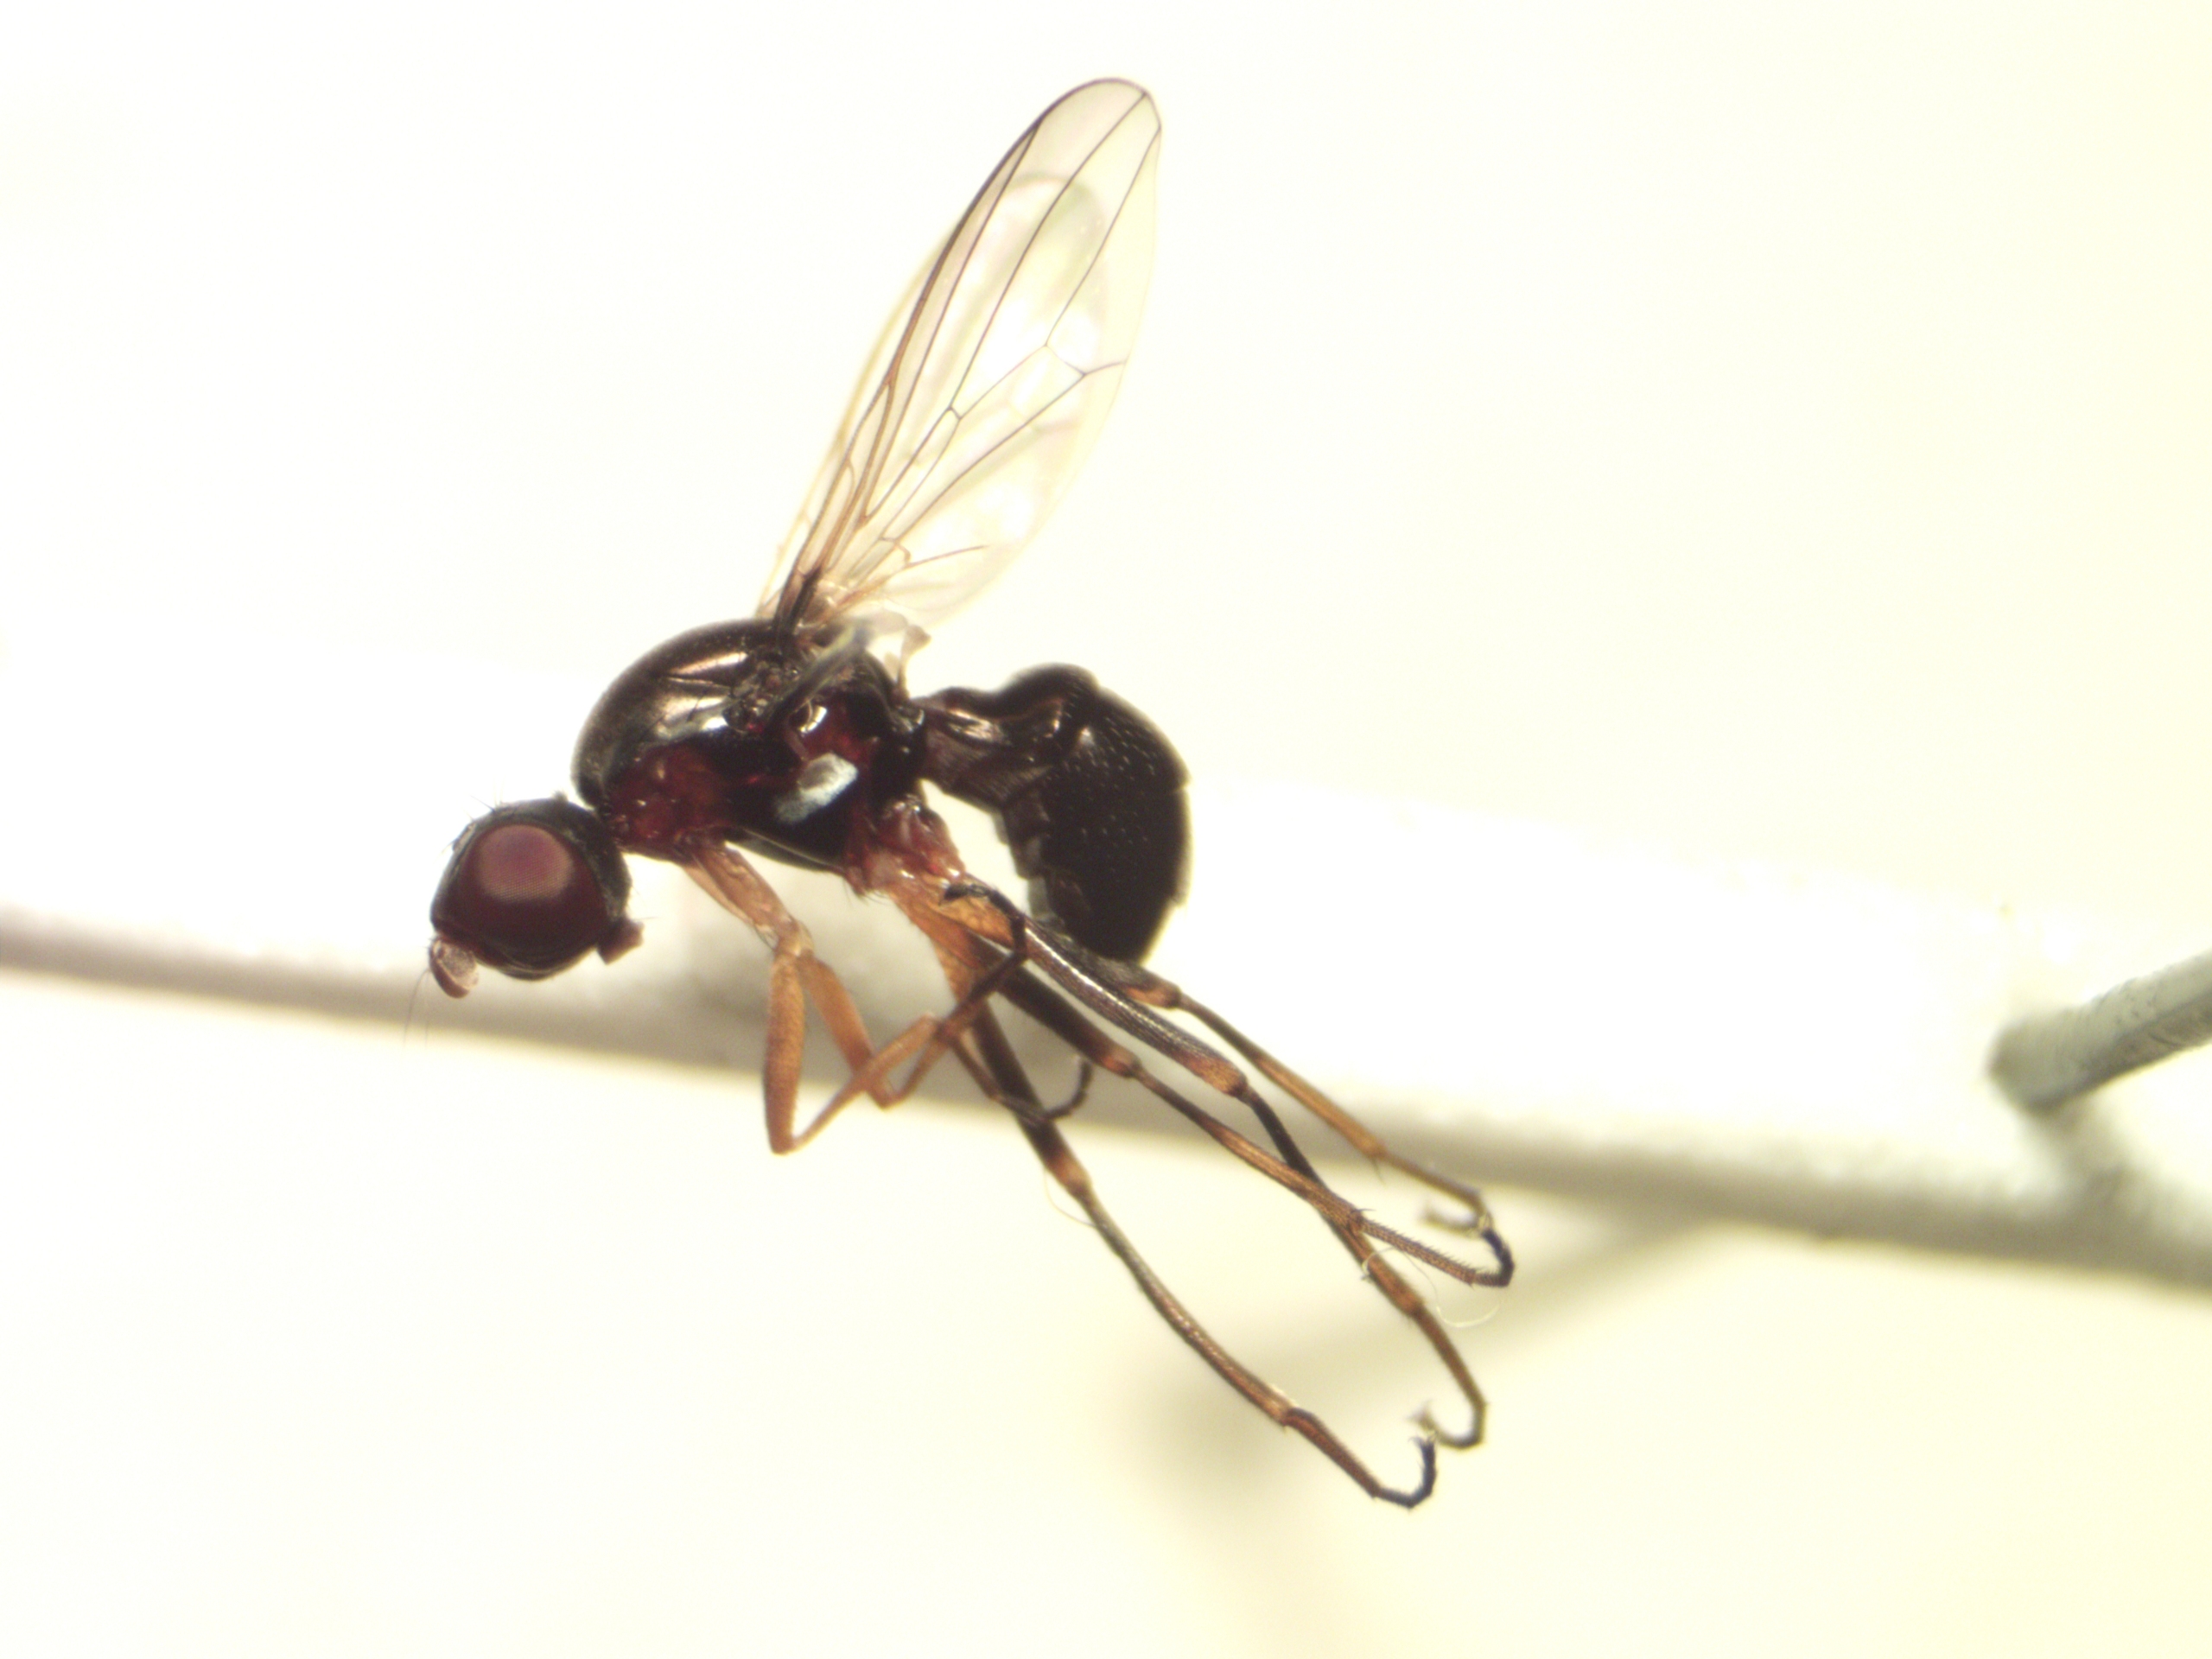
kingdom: Animalia
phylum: Arthropoda
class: Insecta
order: Diptera
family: Sepsidae
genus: Nemopoda
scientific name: Nemopoda nitidula
